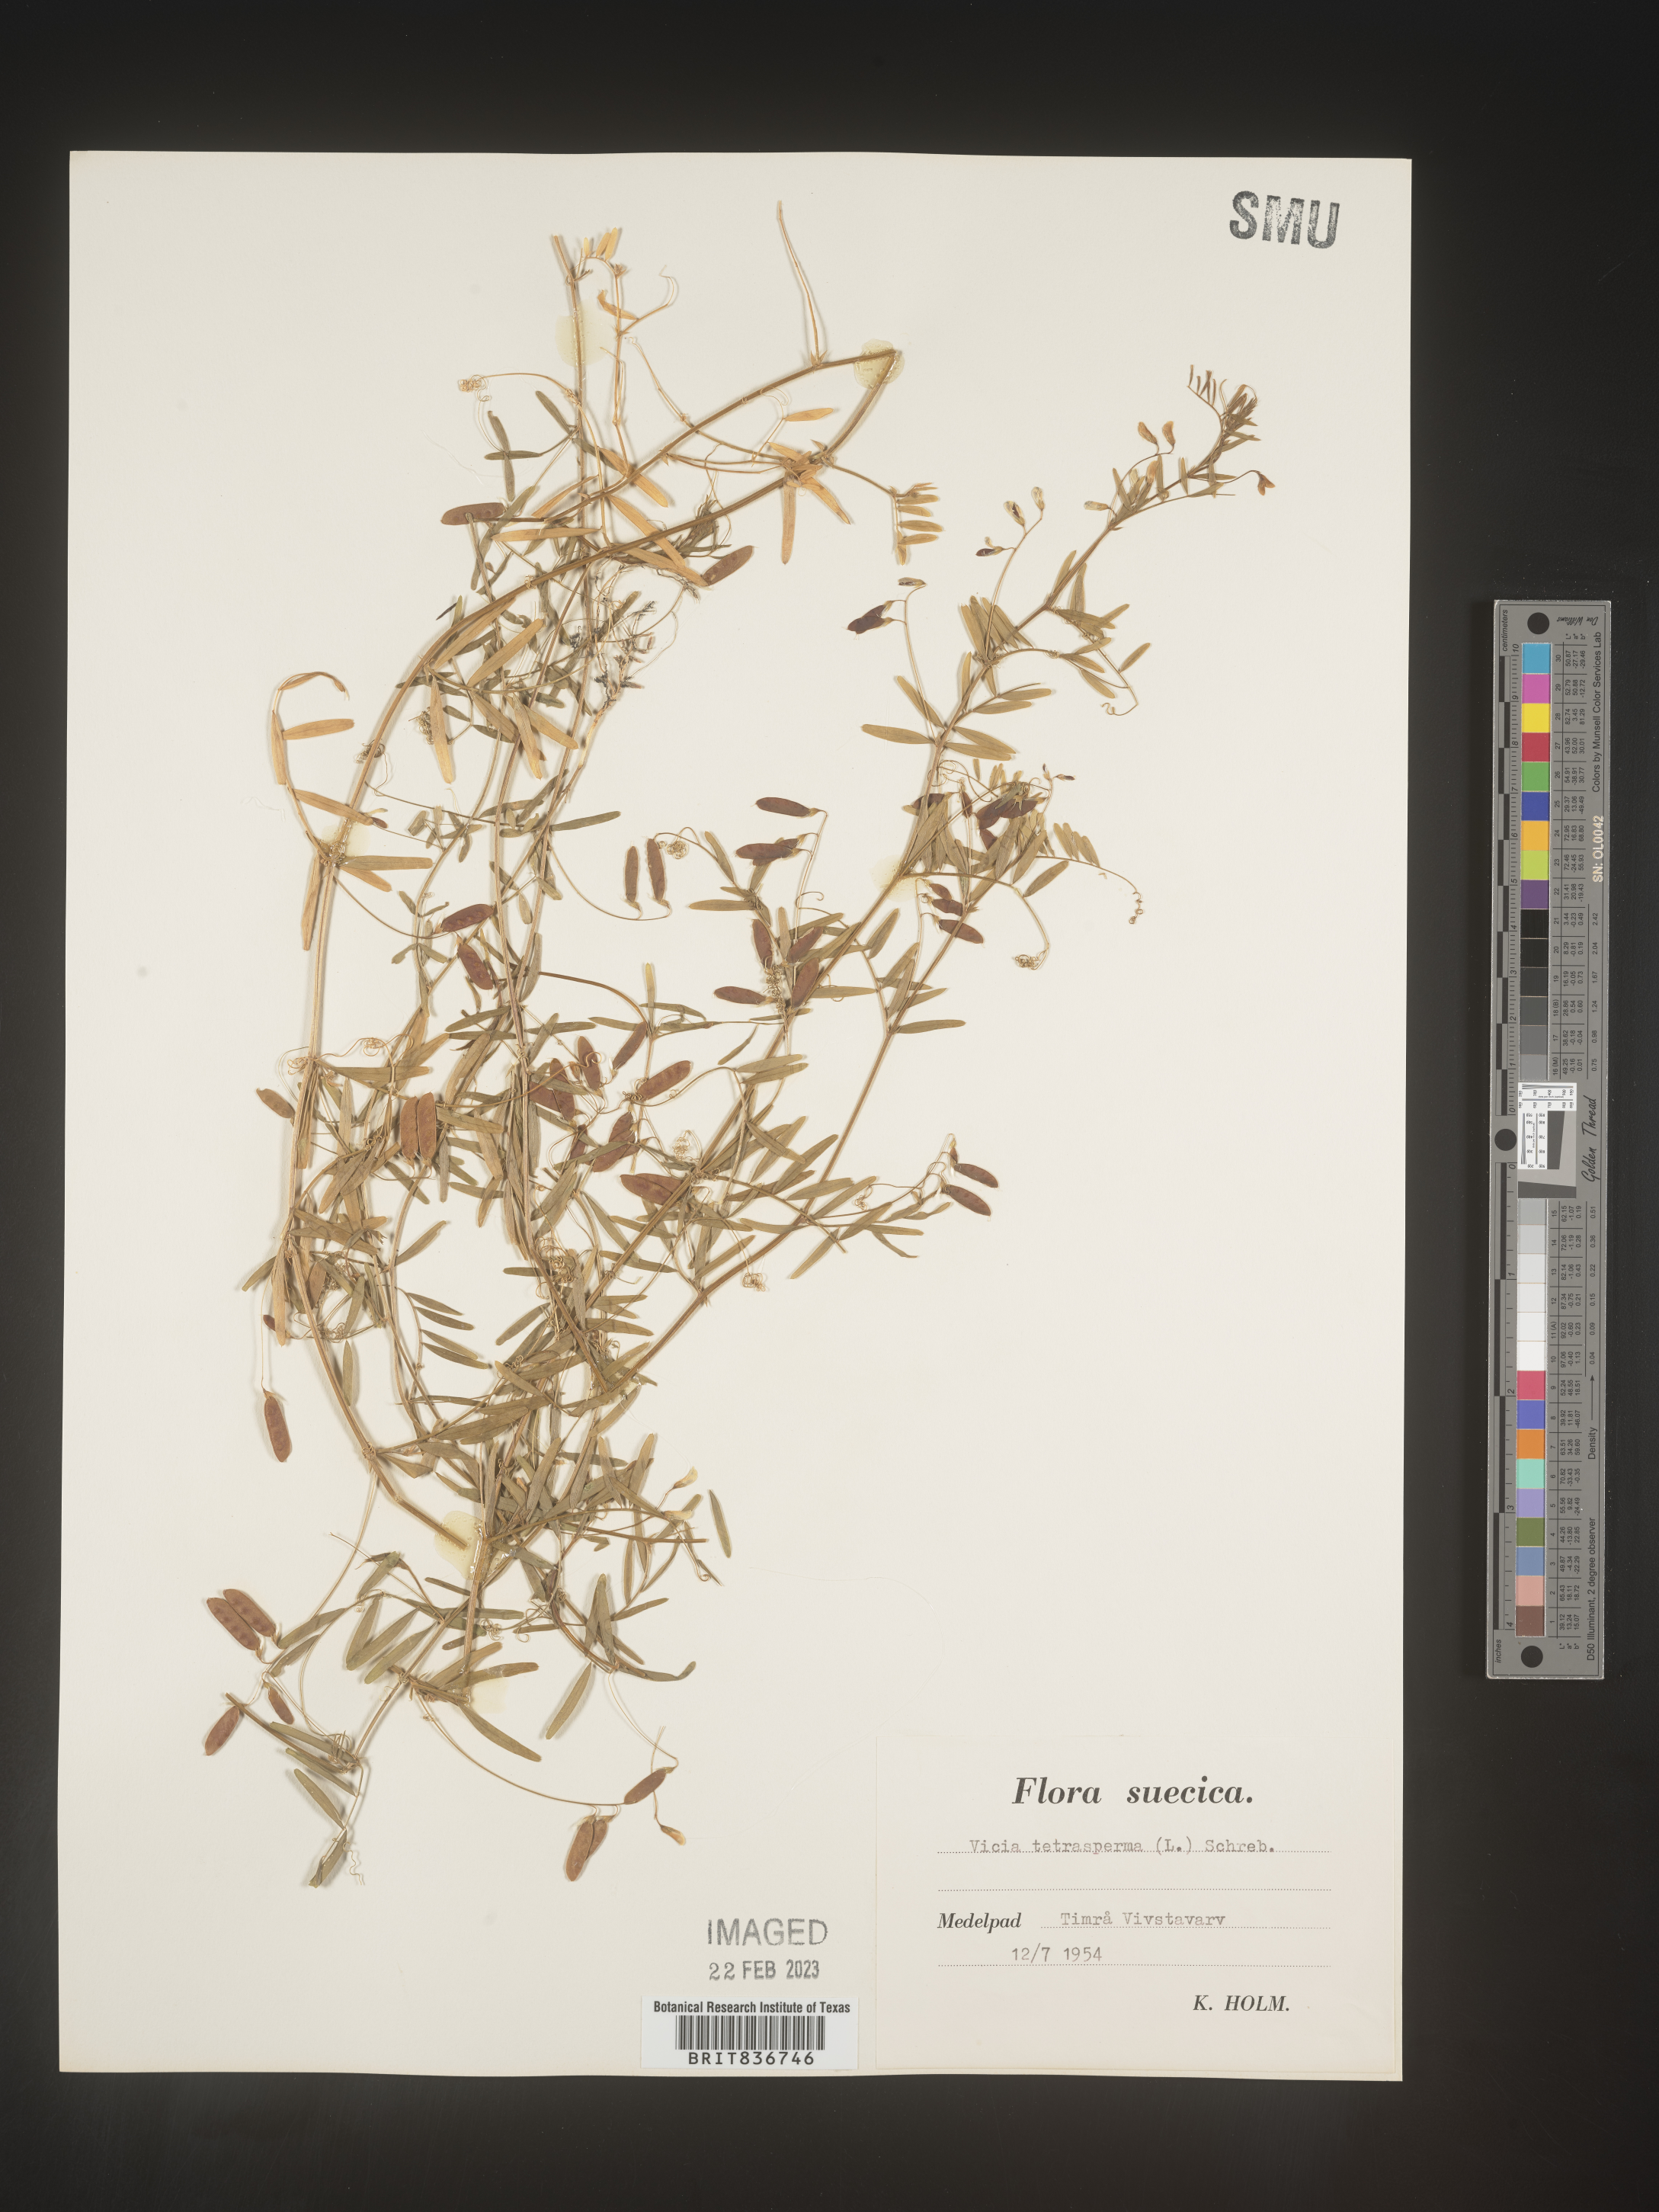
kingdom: Plantae
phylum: Tracheophyta
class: Magnoliopsida
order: Fabales
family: Fabaceae
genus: Vicia
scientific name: Vicia
